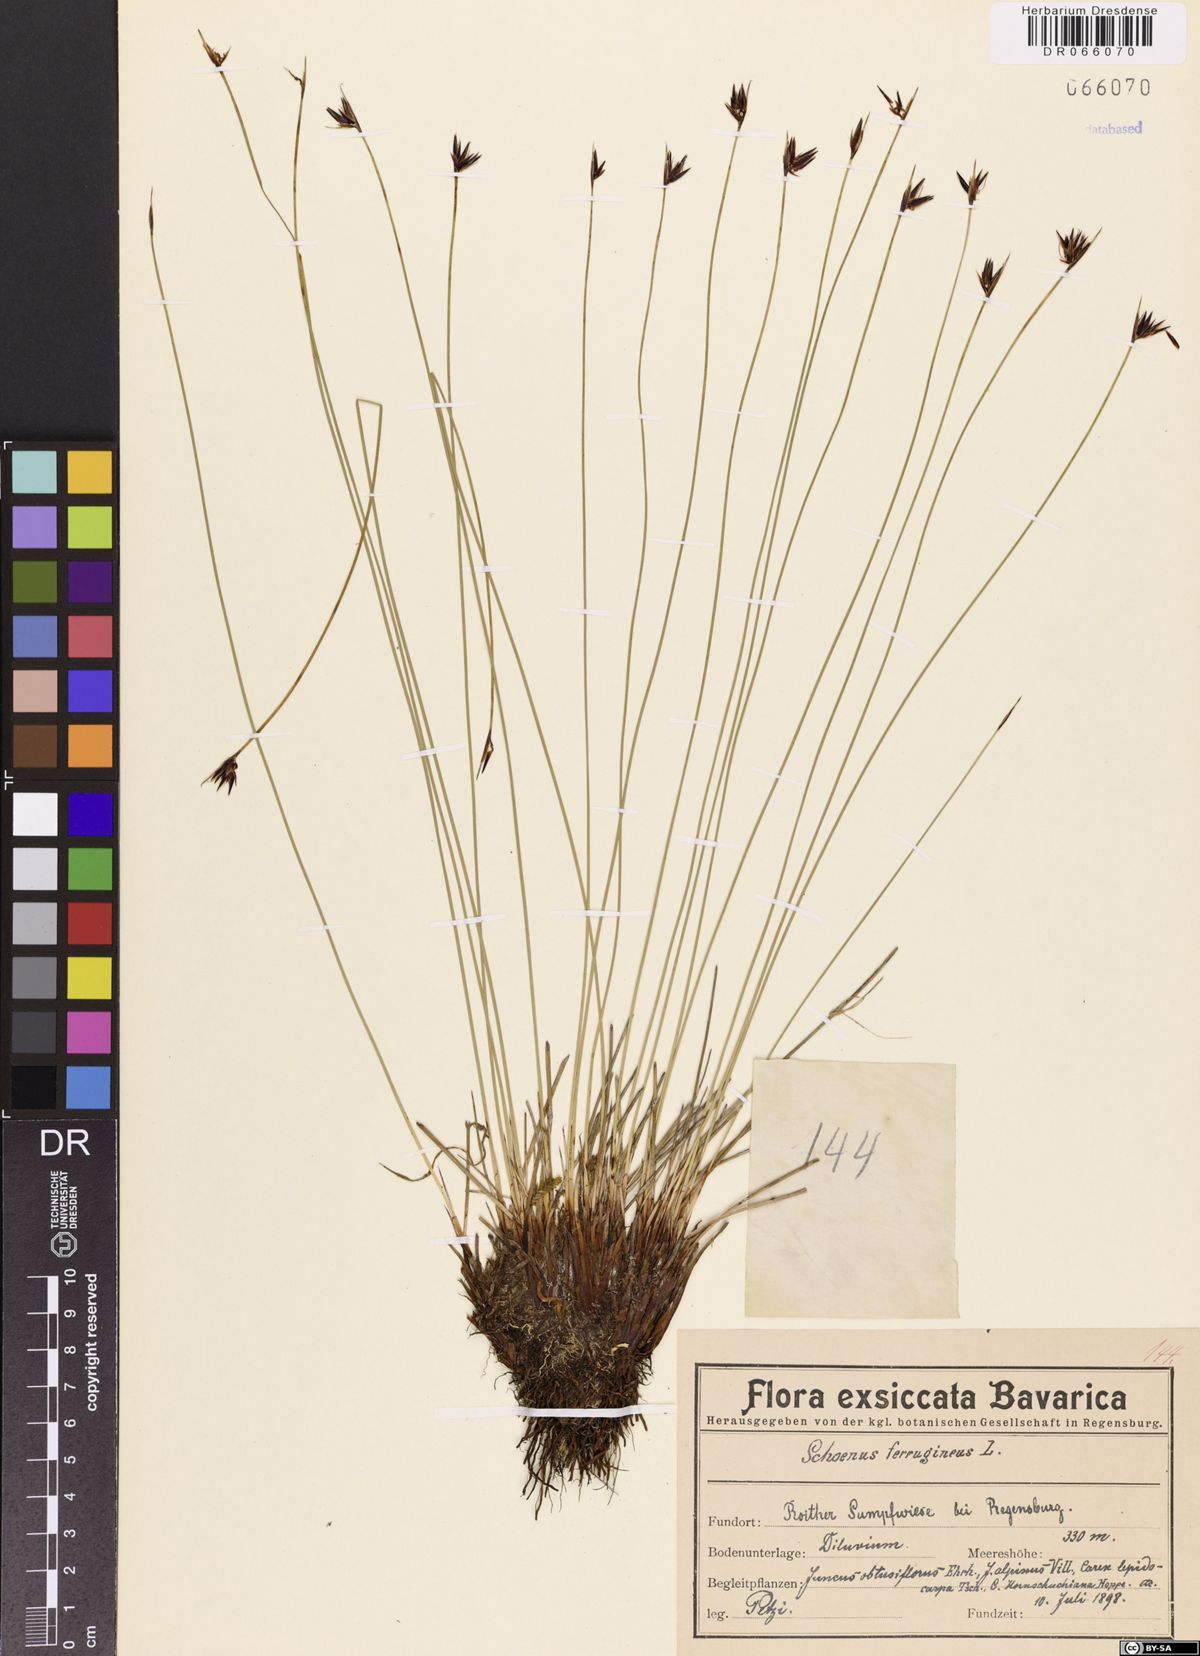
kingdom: Plantae
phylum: Tracheophyta
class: Liliopsida
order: Poales
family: Cyperaceae
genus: Schoenus
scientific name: Schoenus ferrugineus
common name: Brown bog-rush
